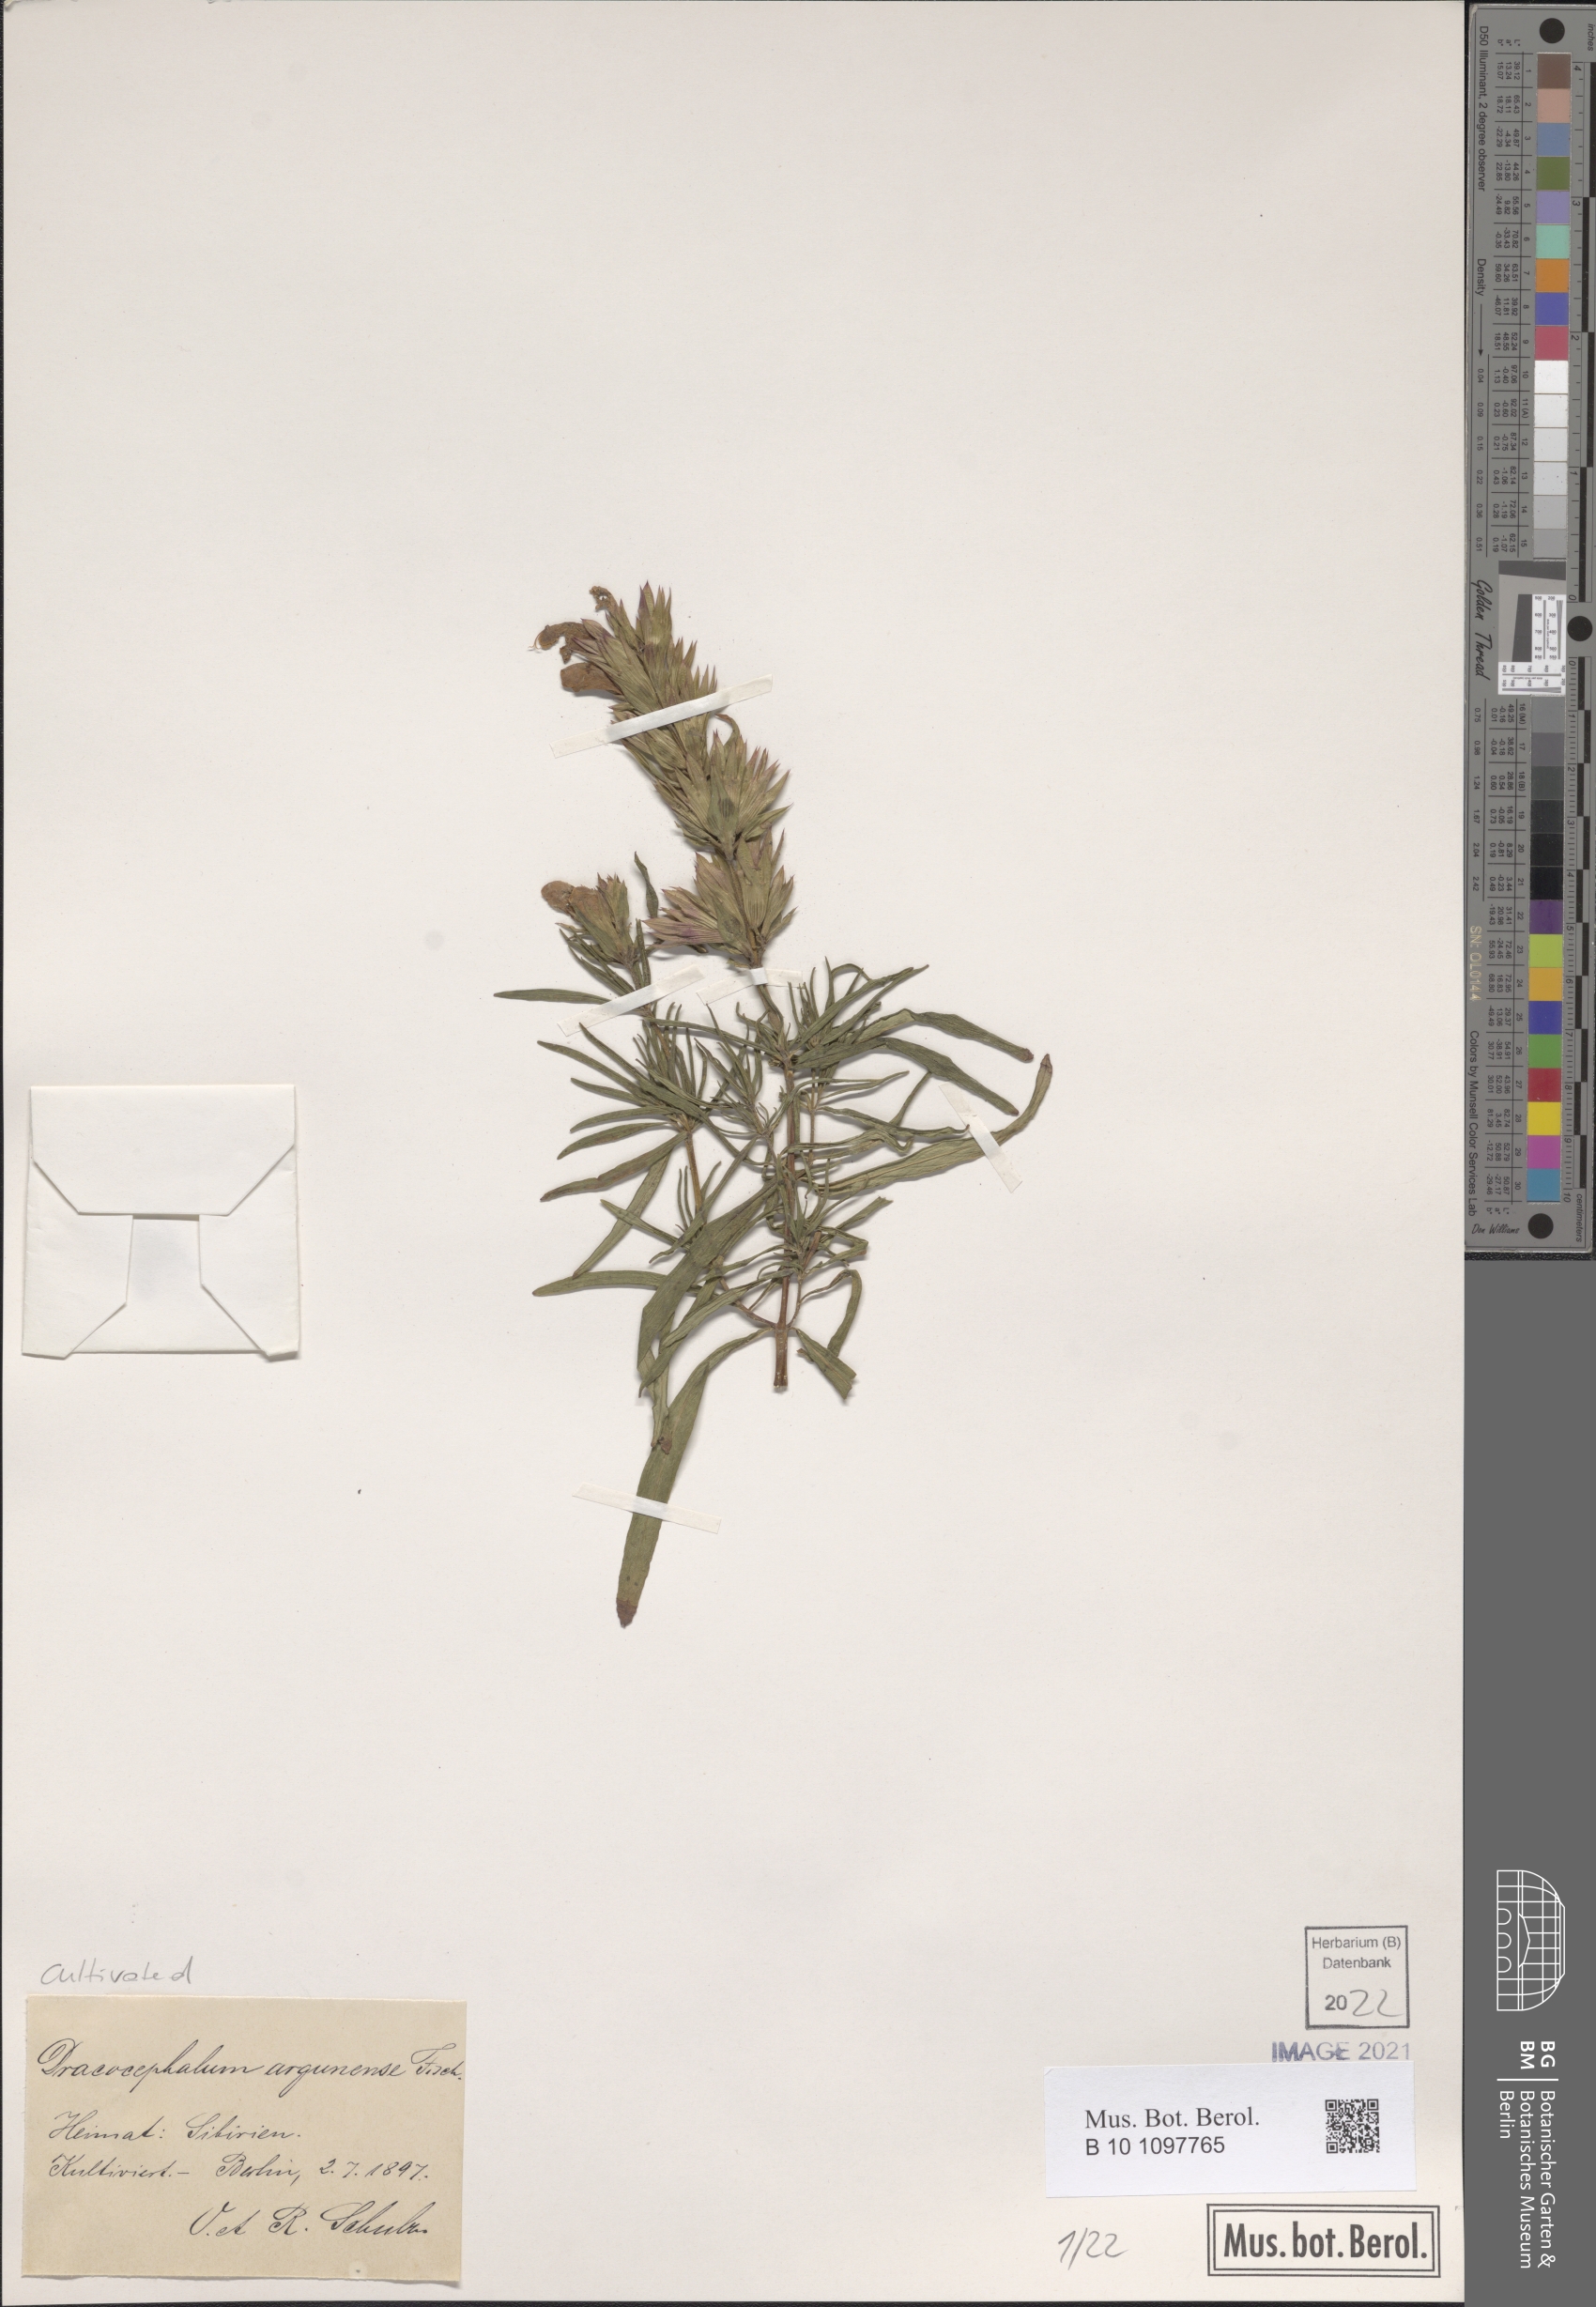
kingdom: Plantae
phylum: Tracheophyta
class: Magnoliopsida
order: Lamiales
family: Lamiaceae
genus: Dracocephalum
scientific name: Dracocephalum argunense
